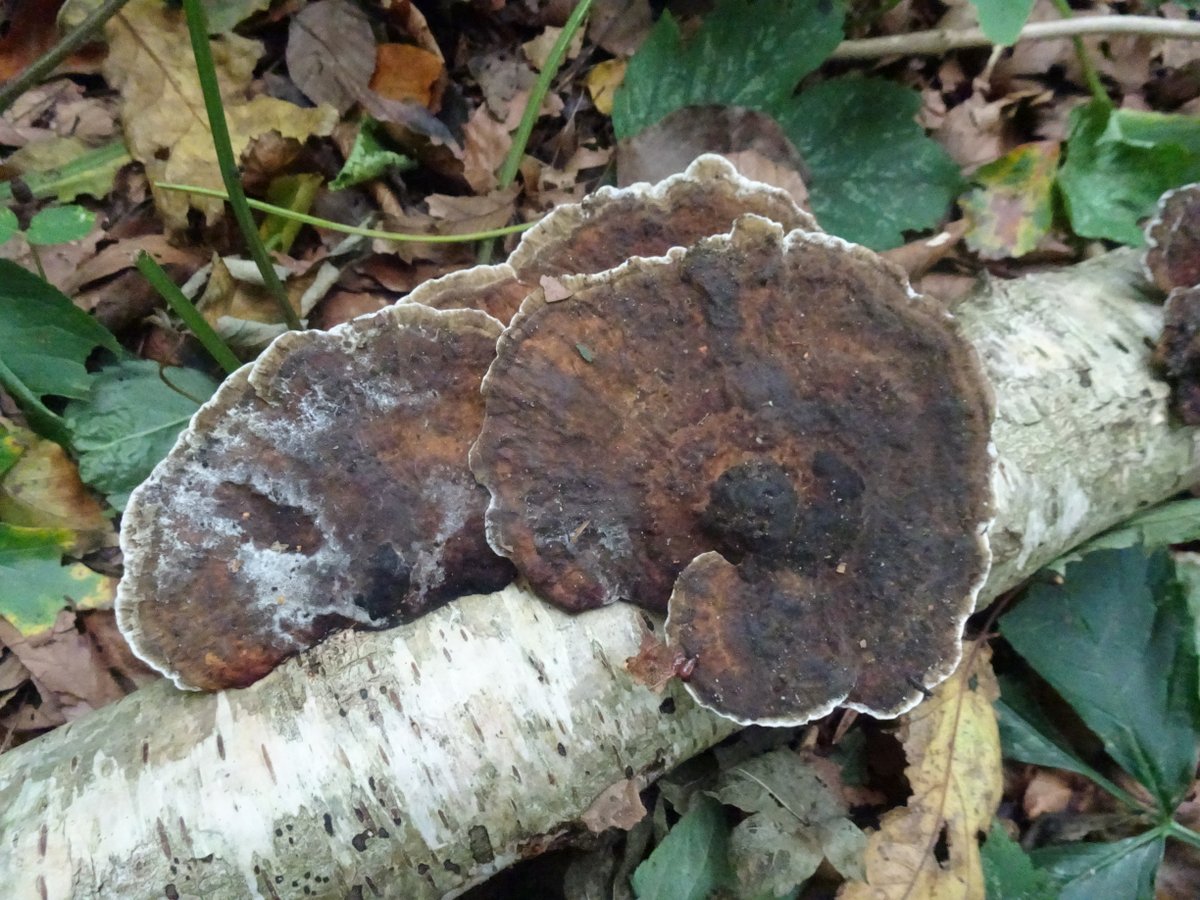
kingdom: Fungi
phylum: Basidiomycota
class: Agaricomycetes
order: Polyporales
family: Polyporaceae
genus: Daedaleopsis
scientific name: Daedaleopsis confragosa
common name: rødmende læderporesvamp
